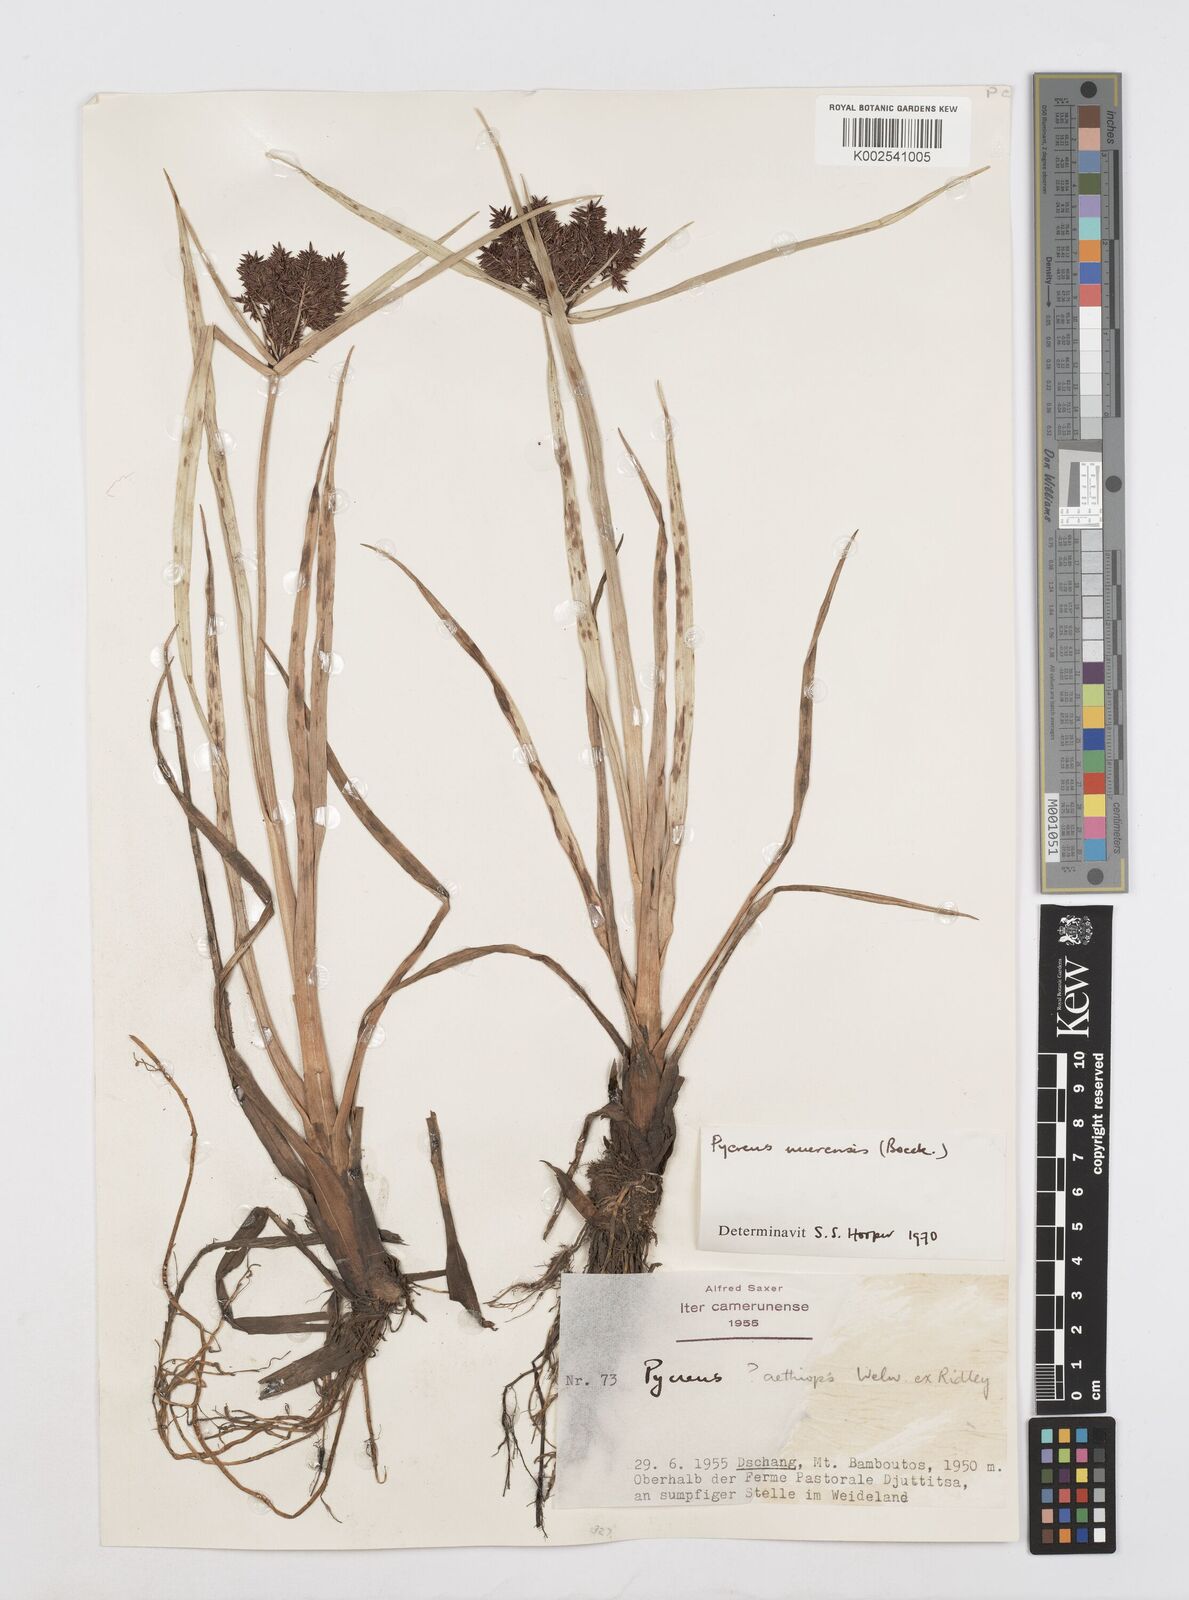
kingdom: Plantae
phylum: Tracheophyta
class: Liliopsida
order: Poales
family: Cyperaceae
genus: Cyperus
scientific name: Cyperus nuerensis
